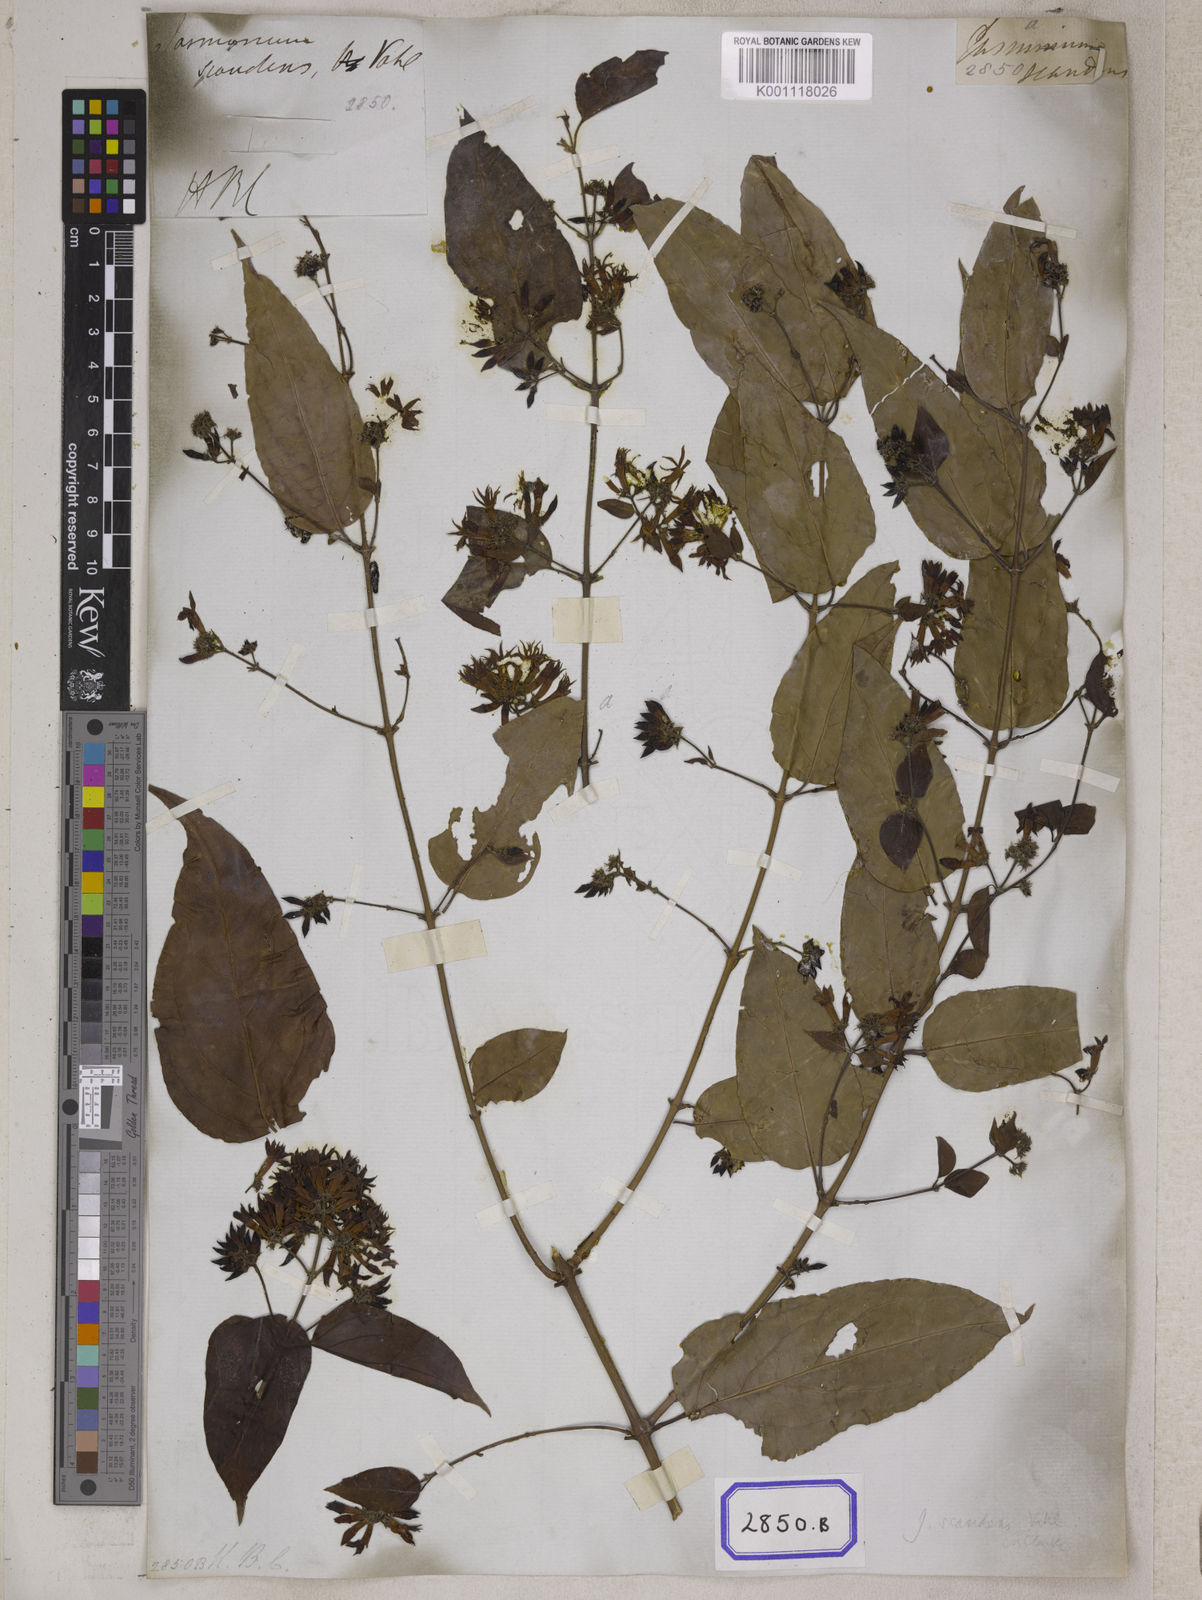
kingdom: Plantae
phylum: Tracheophyta
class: Magnoliopsida
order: Lamiales
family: Oleaceae
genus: Jasminum
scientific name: Jasminum scandens
